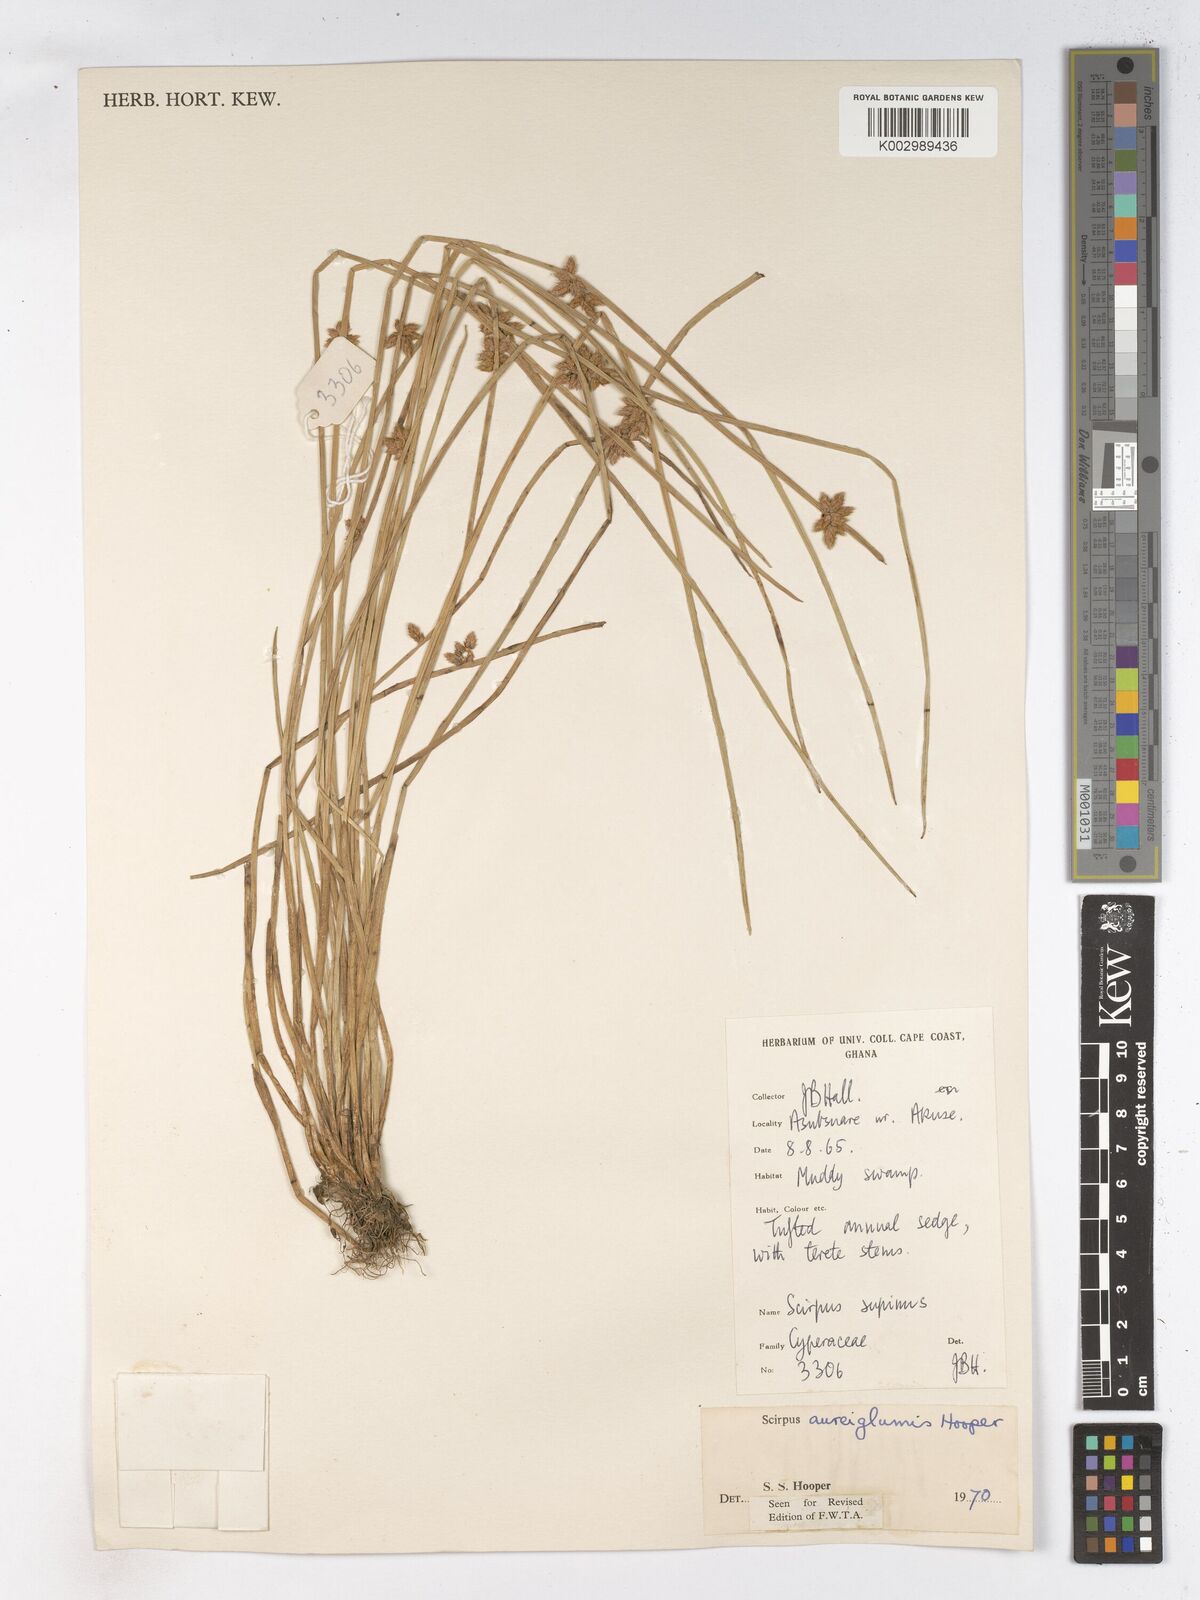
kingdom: Plantae
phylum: Tracheophyta
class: Liliopsida
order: Poales
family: Cyperaceae
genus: Schoenoplectiella
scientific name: Schoenoplectiella juncea
